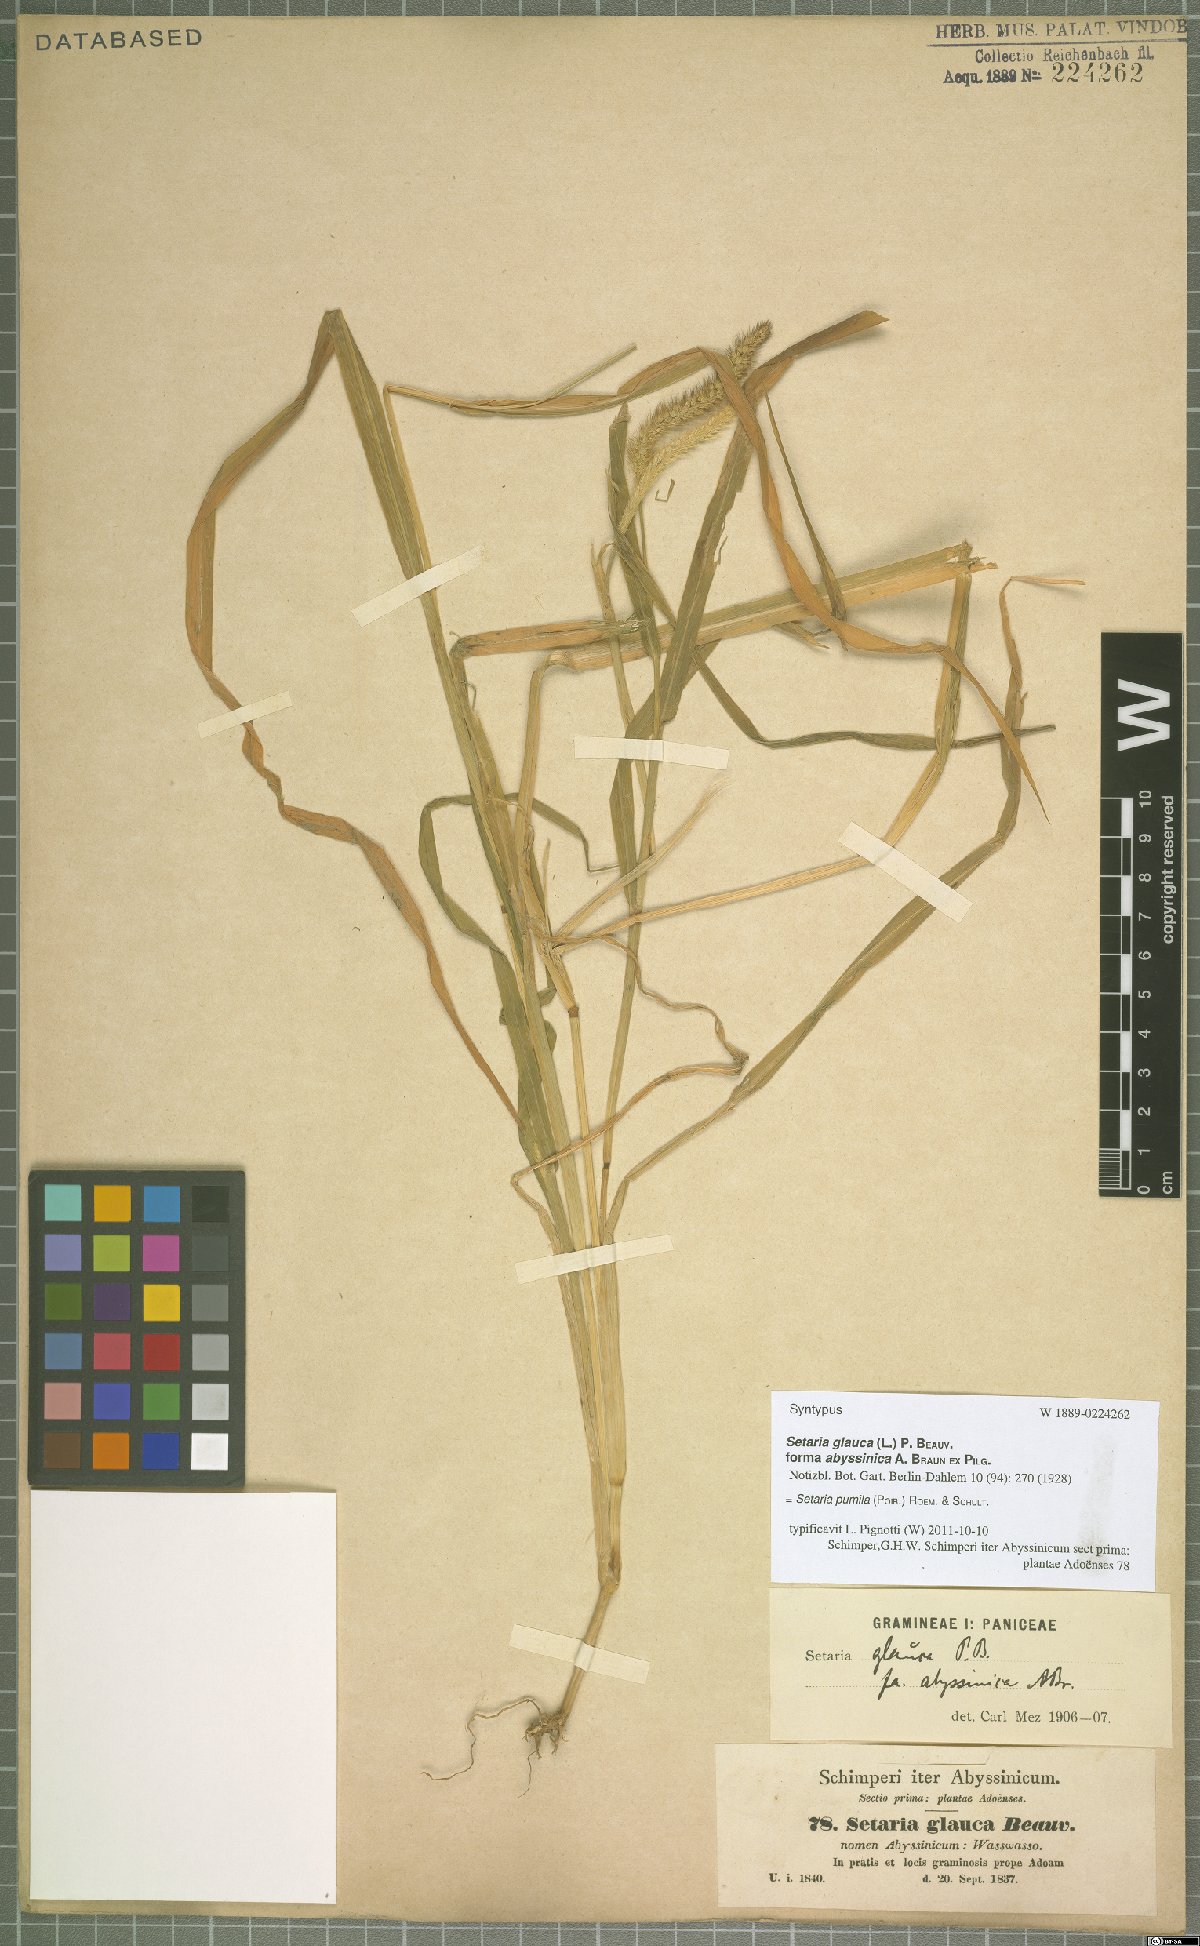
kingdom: Plantae
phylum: Tracheophyta
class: Liliopsida
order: Poales
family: Poaceae
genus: Setaria
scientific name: Setaria pumila
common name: Yellow bristle-grass
